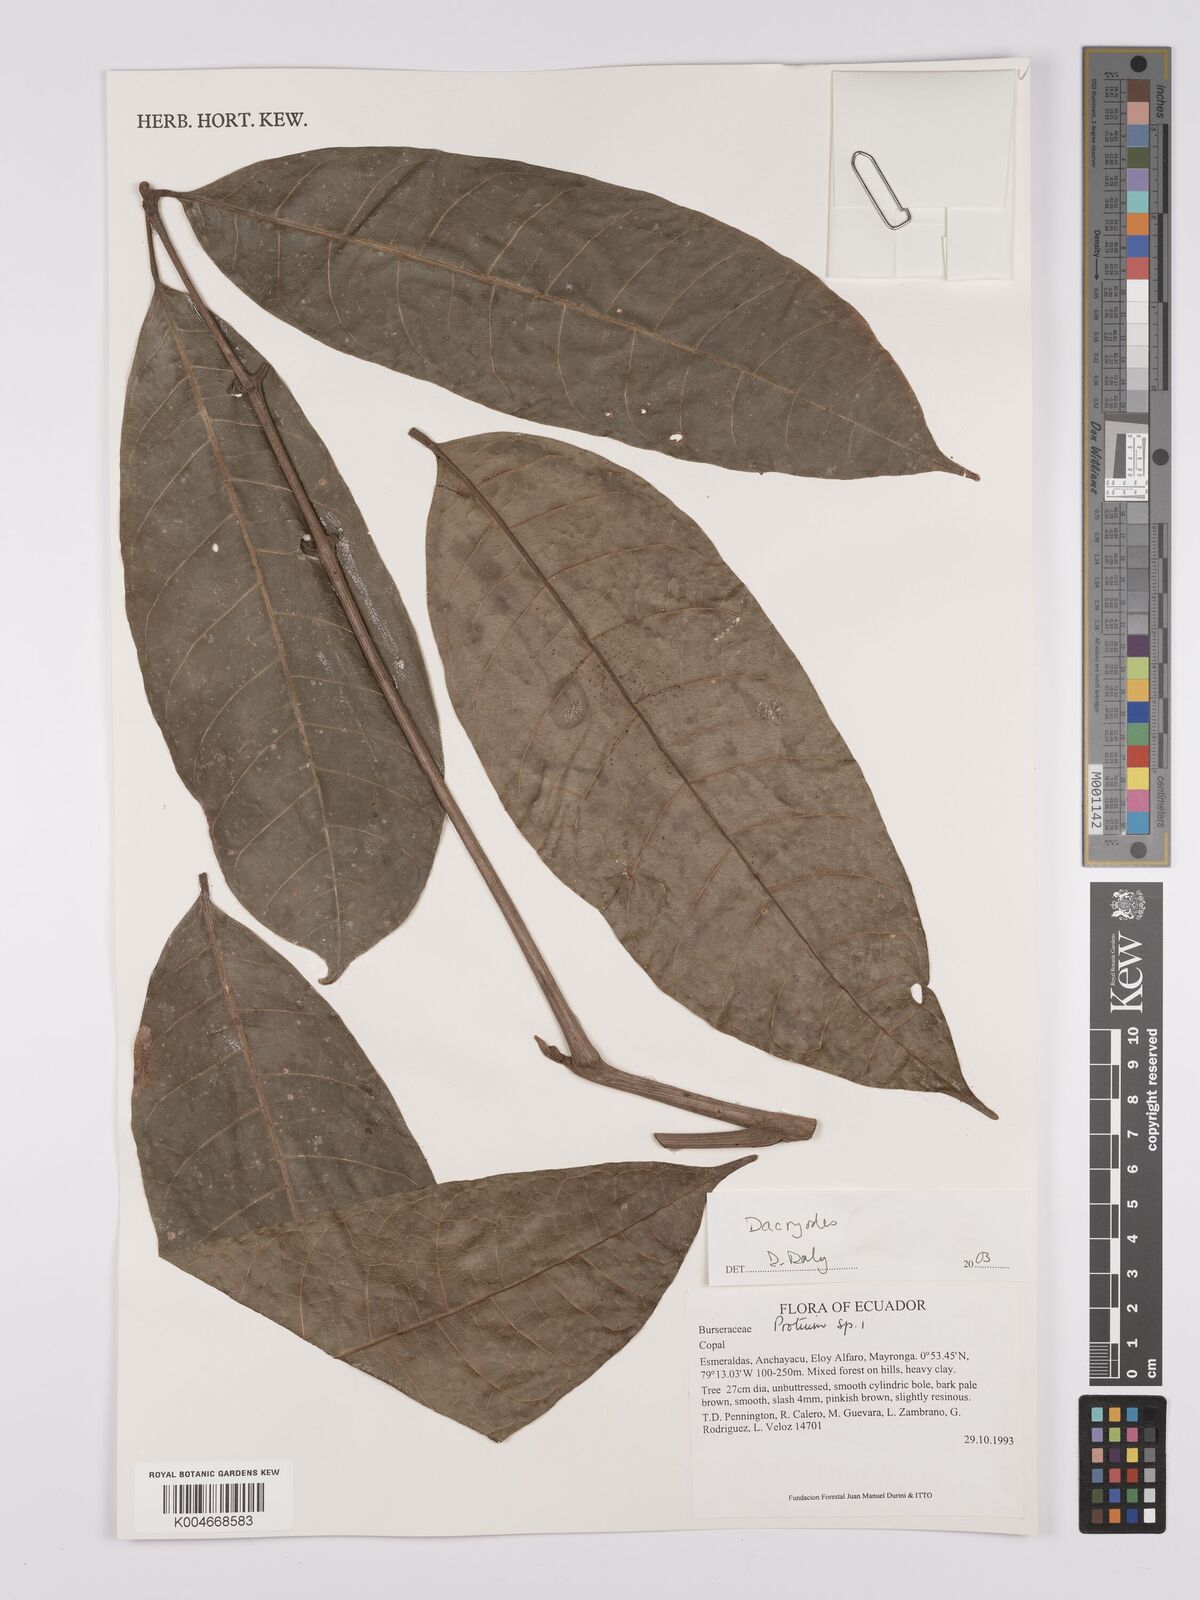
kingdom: Plantae
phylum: Tracheophyta
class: Magnoliopsida
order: Sapindales
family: Burseraceae
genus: Dacryodes
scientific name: Dacryodes
